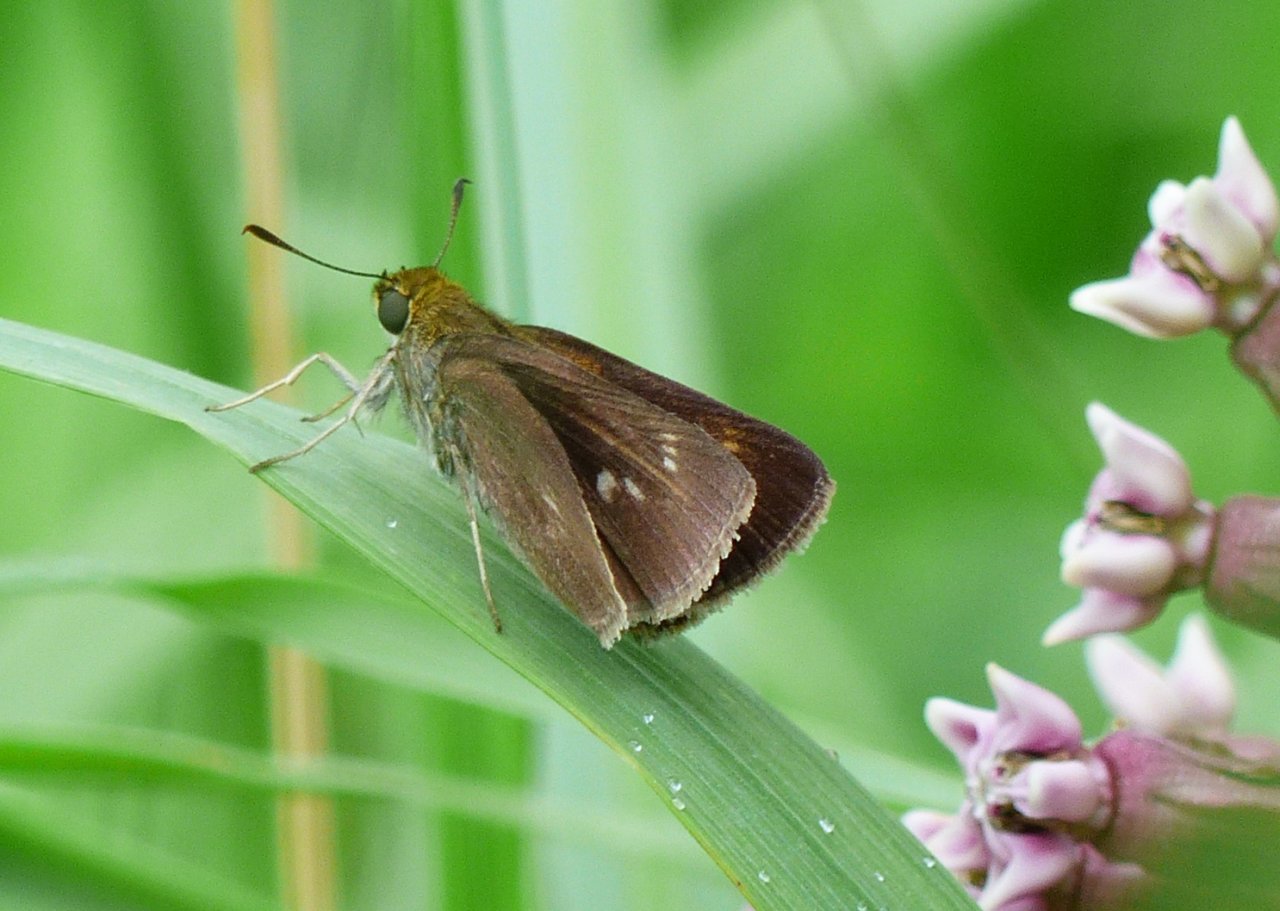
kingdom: Animalia
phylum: Arthropoda
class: Insecta
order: Lepidoptera
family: Hesperiidae
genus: Euphyes
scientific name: Euphyes vestris
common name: Dun Skipper
